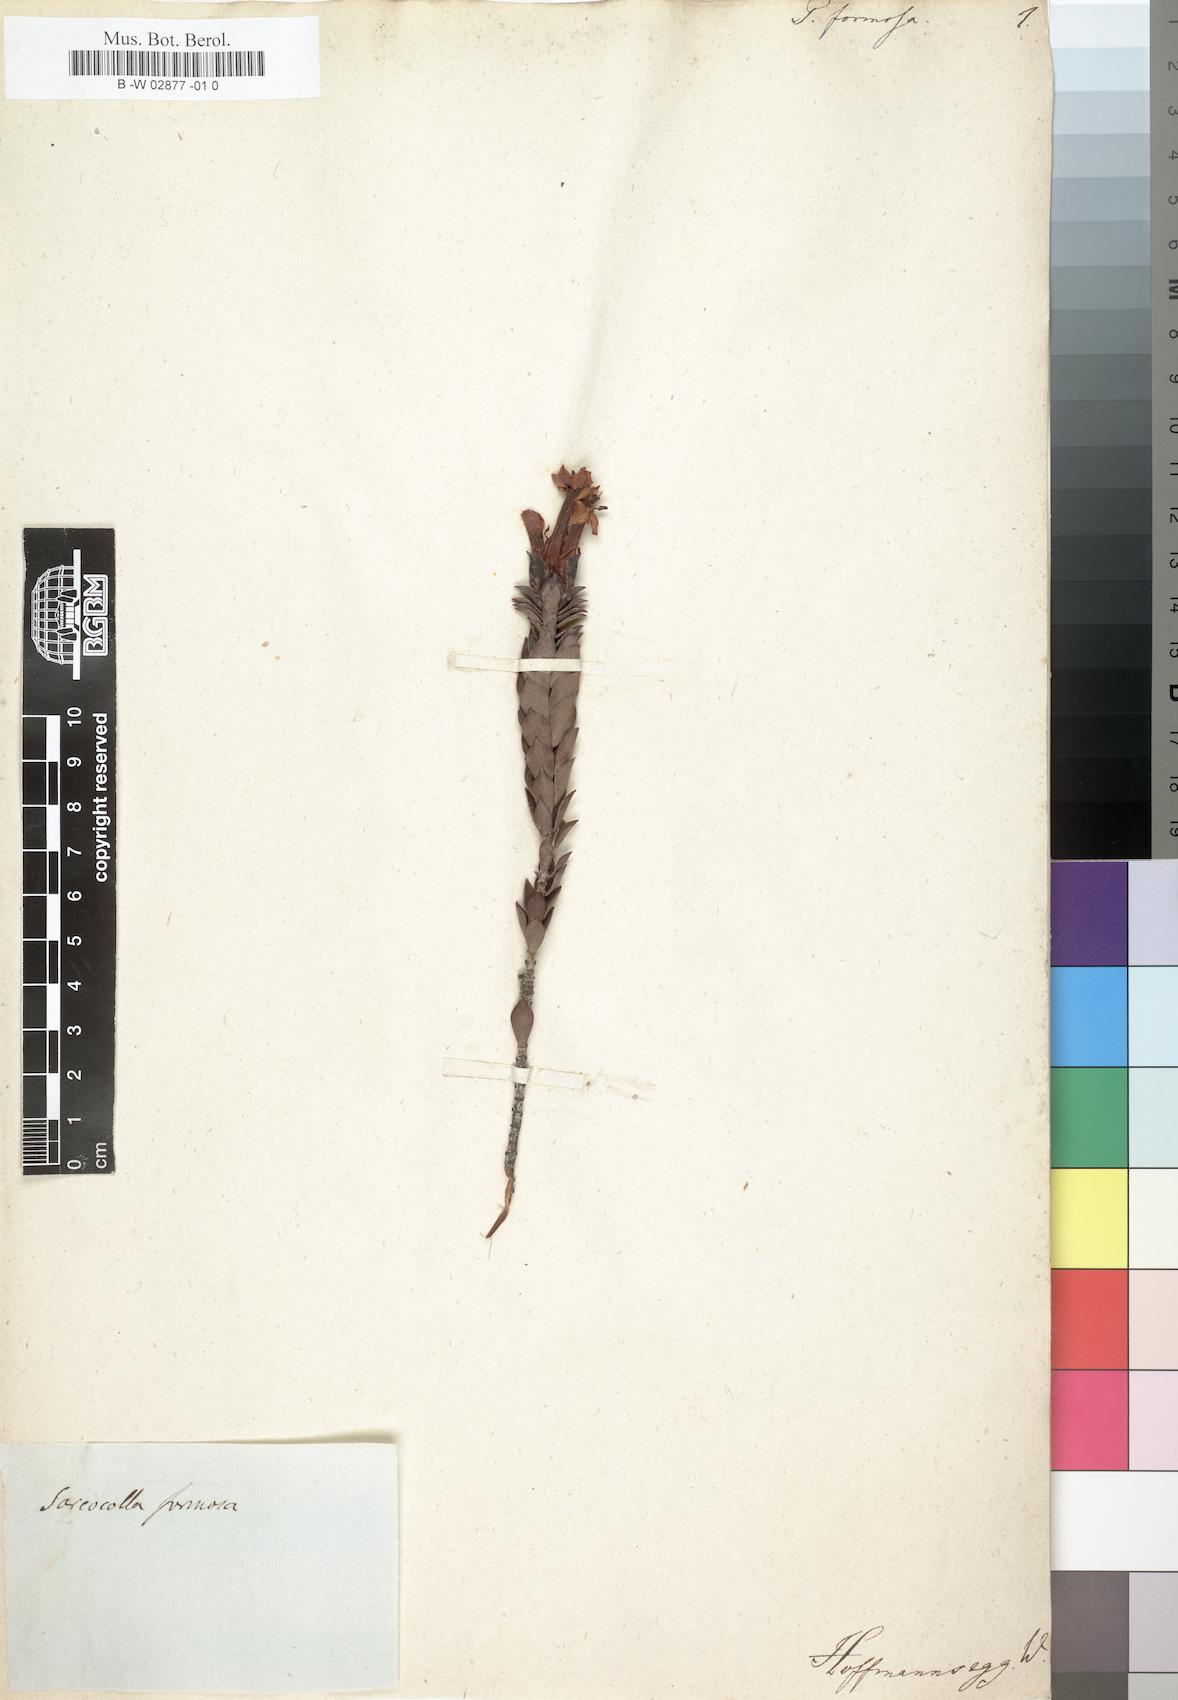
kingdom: Plantae
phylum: Tracheophyta
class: Magnoliopsida
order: Myrtales
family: Penaeaceae
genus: Glischrocolla
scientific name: Glischrocolla formosa
